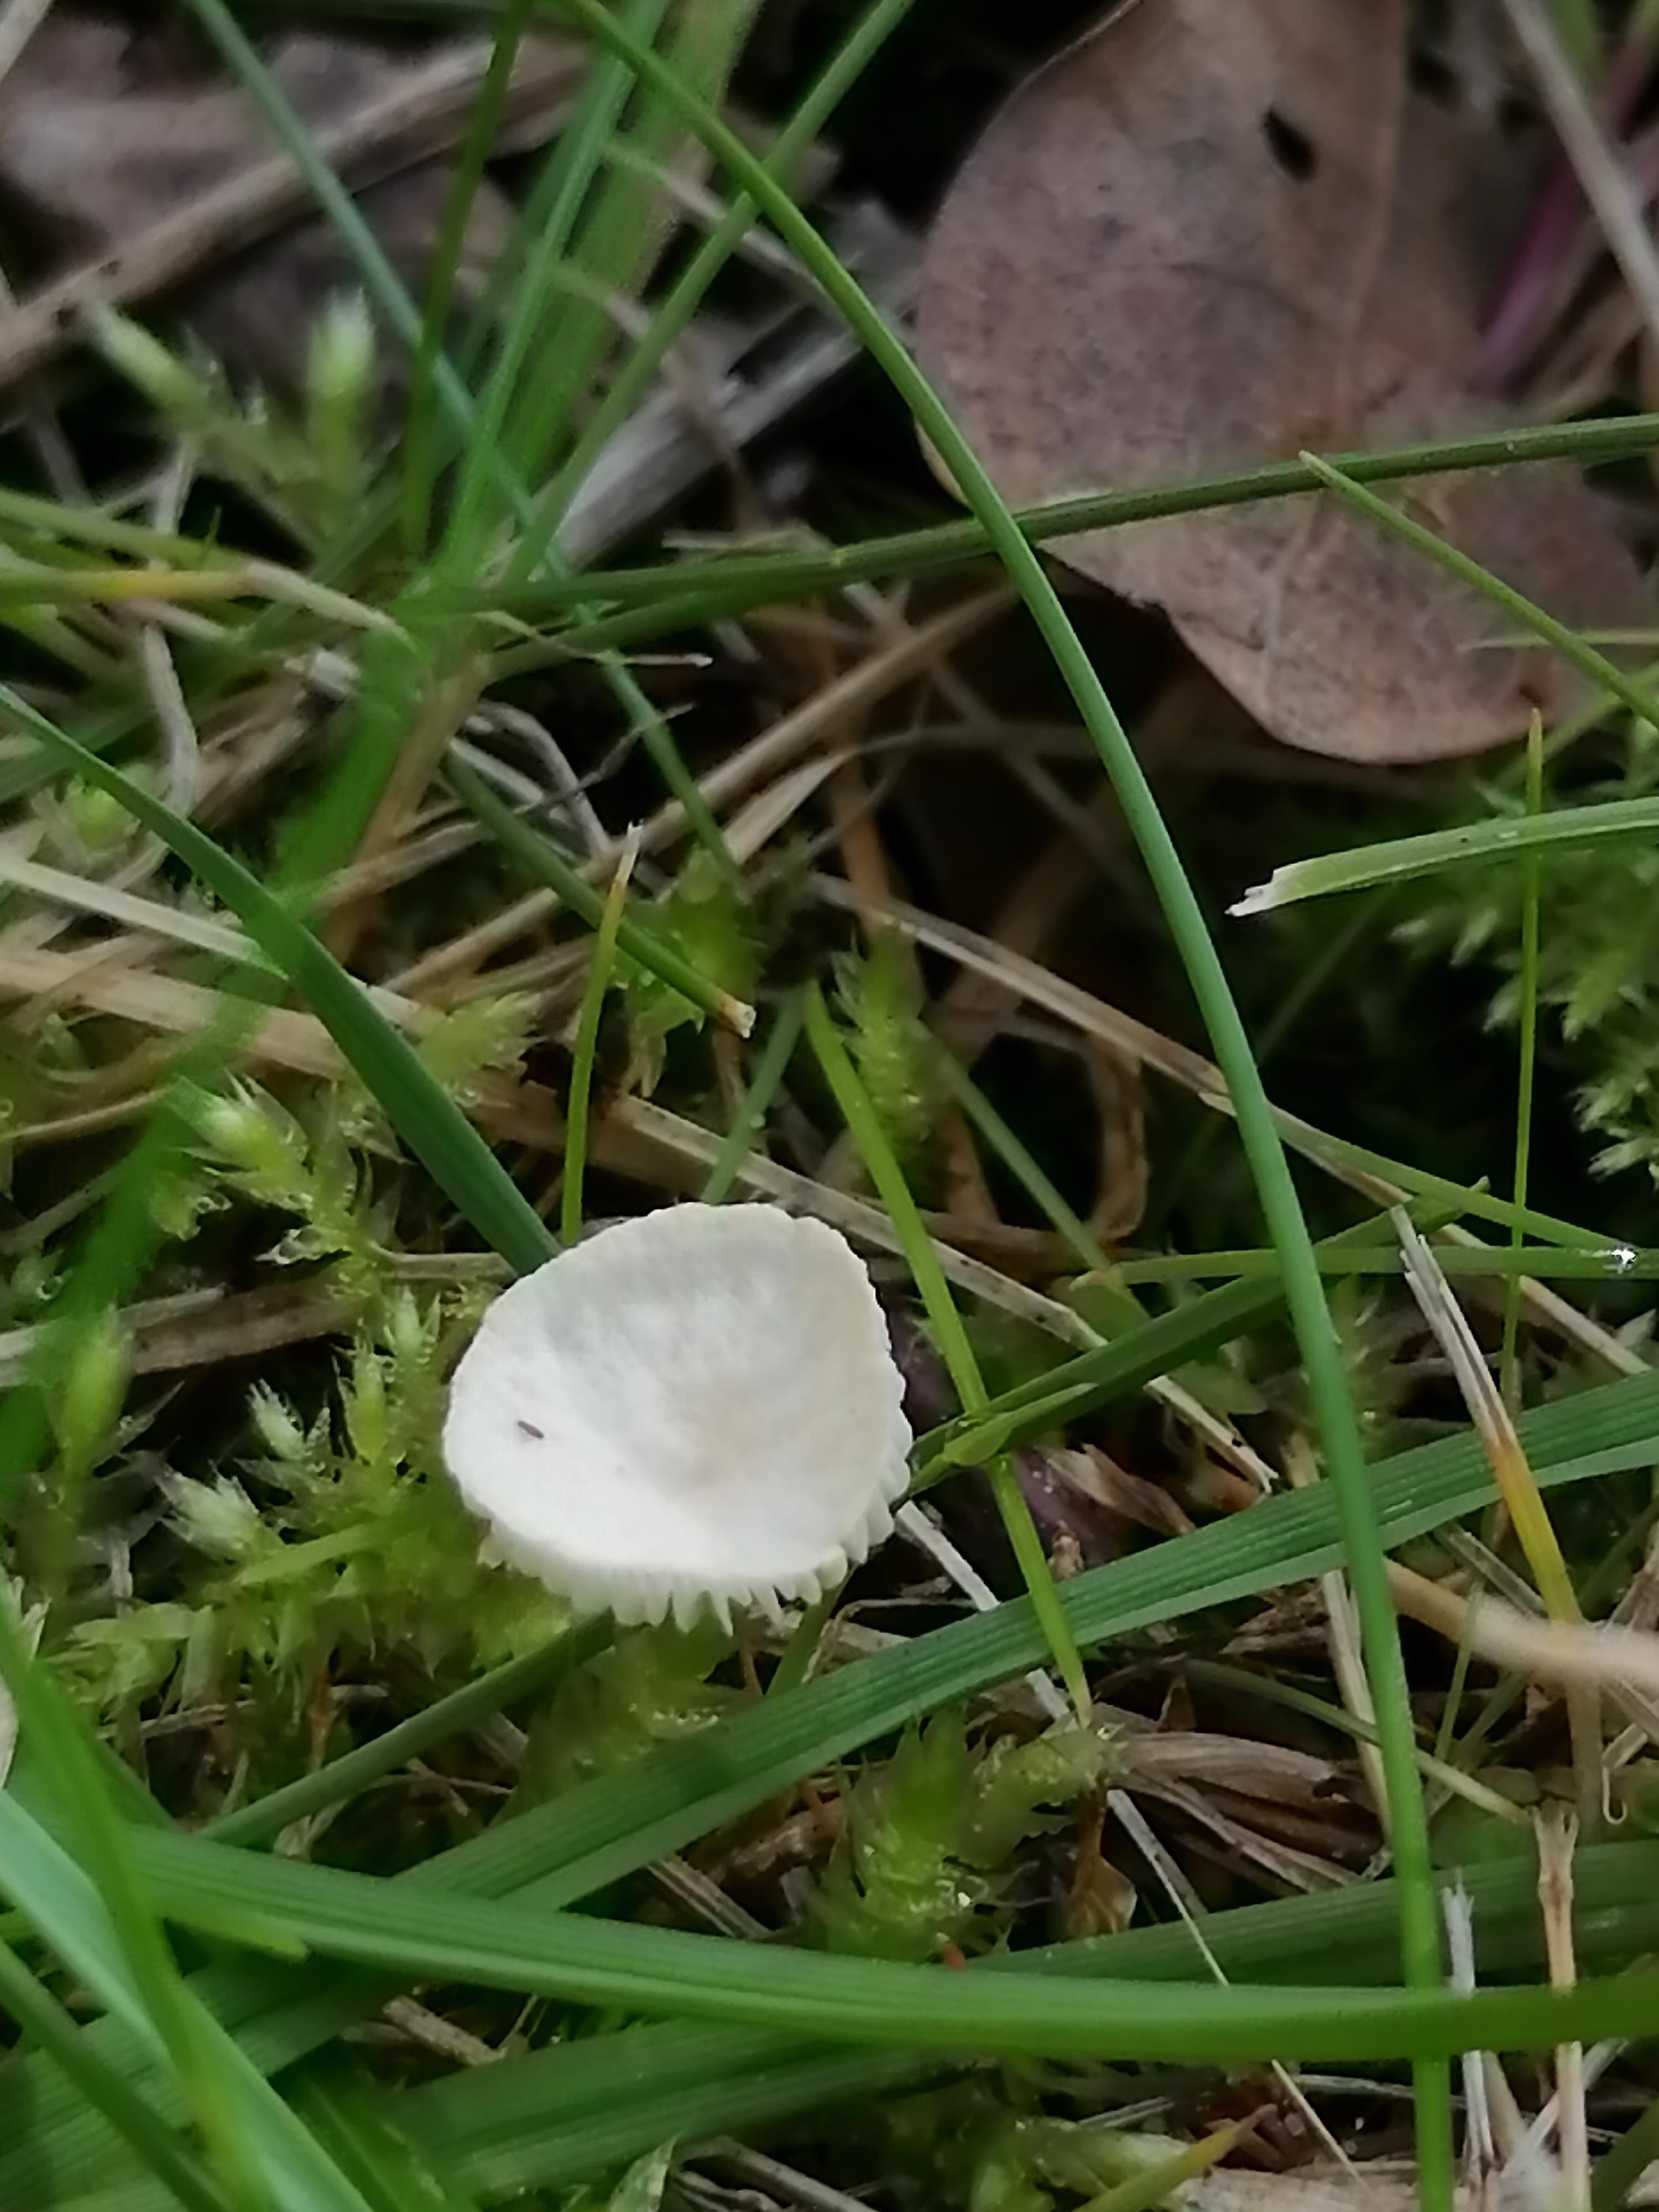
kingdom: Fungi
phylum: Basidiomycota
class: Agaricomycetes
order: Agaricales
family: Omphalotaceae
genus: Collybiopsis
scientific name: Collybiopsis vaillantii
